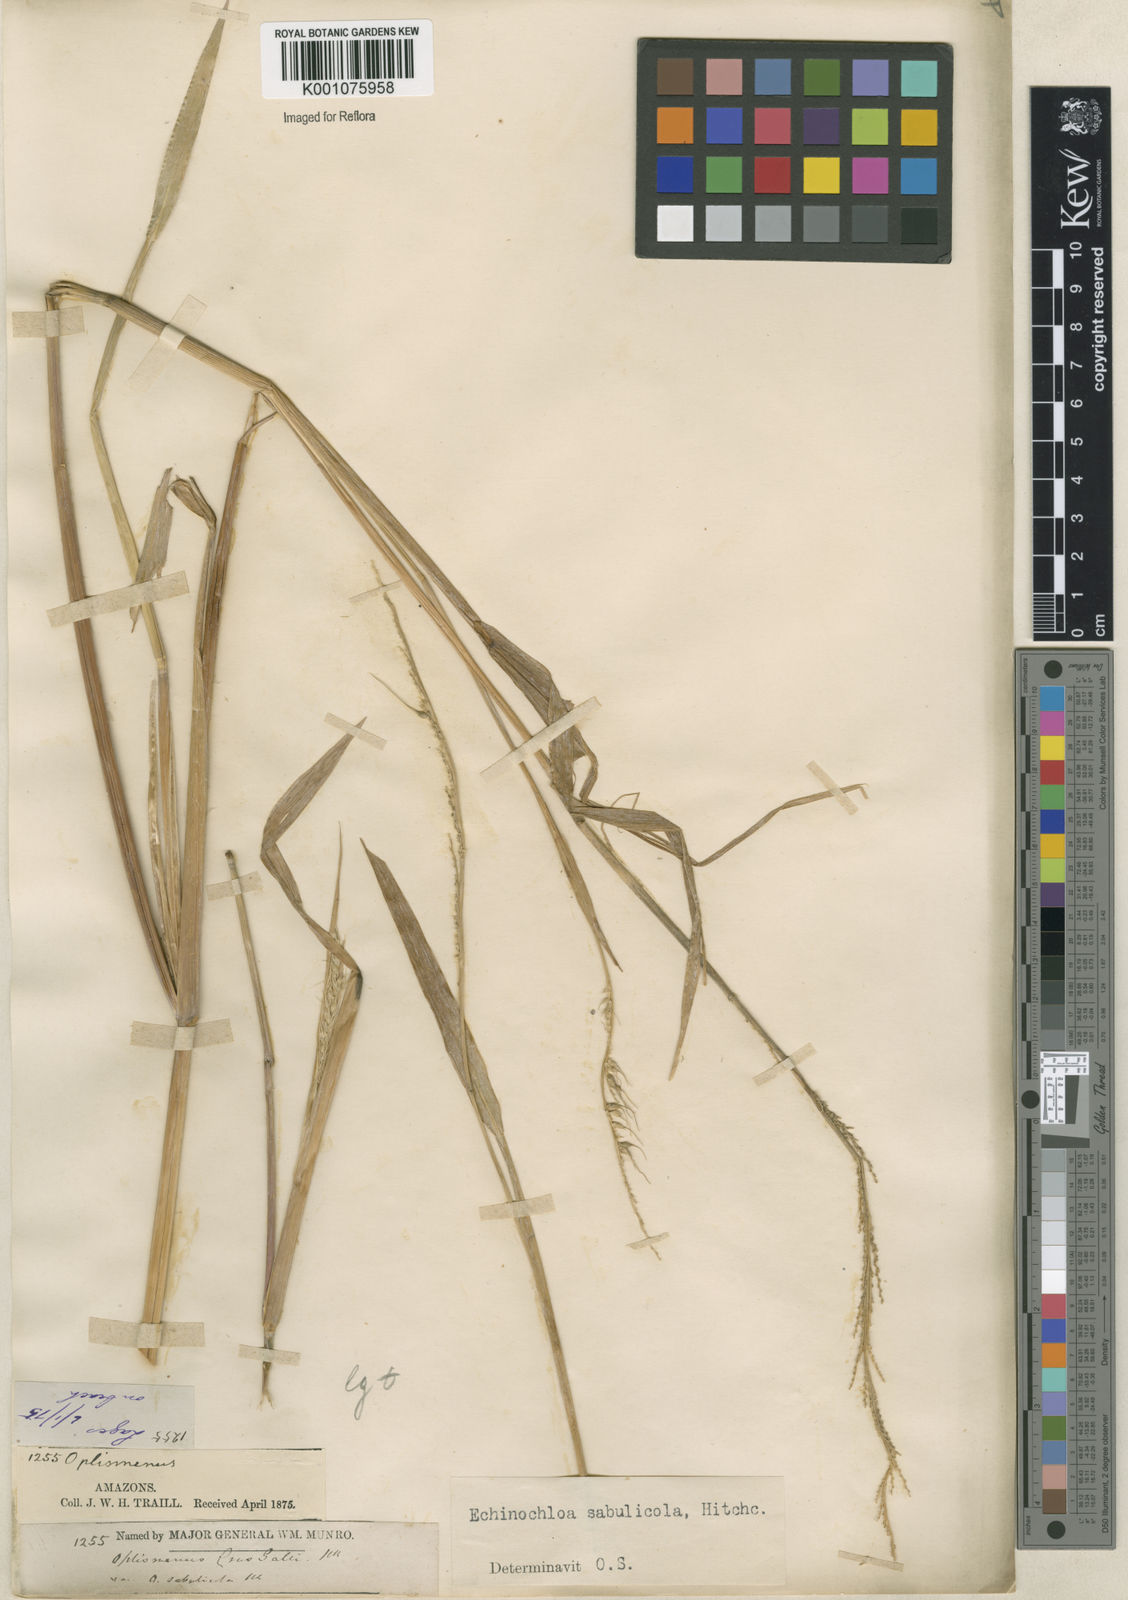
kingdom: Plantae
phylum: Tracheophyta
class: Liliopsida
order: Poales
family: Poaceae
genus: Echinochloa
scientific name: Echinochloa crus-pavonis
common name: Gulf cockspur grass
